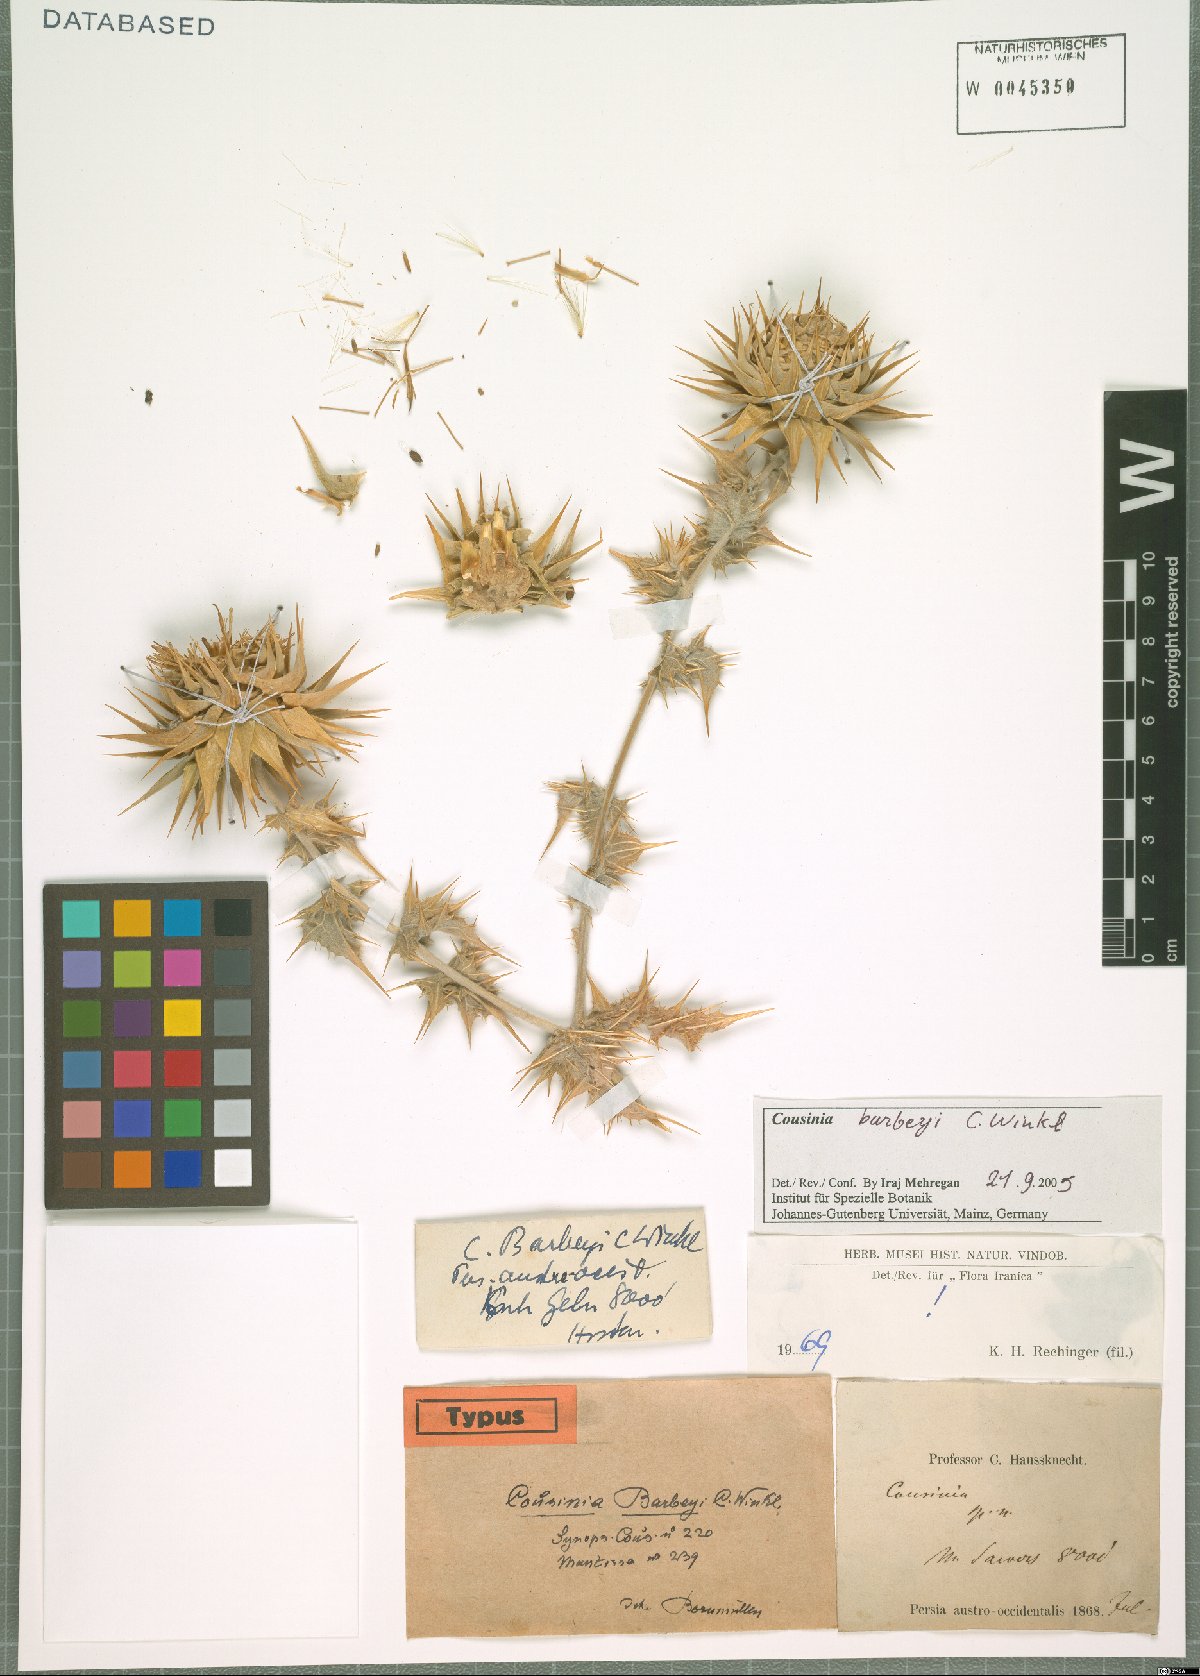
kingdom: Plantae
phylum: Tracheophyta
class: Magnoliopsida
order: Asterales
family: Asteraceae
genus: Cousinia
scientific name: Cousinia barbeyi
